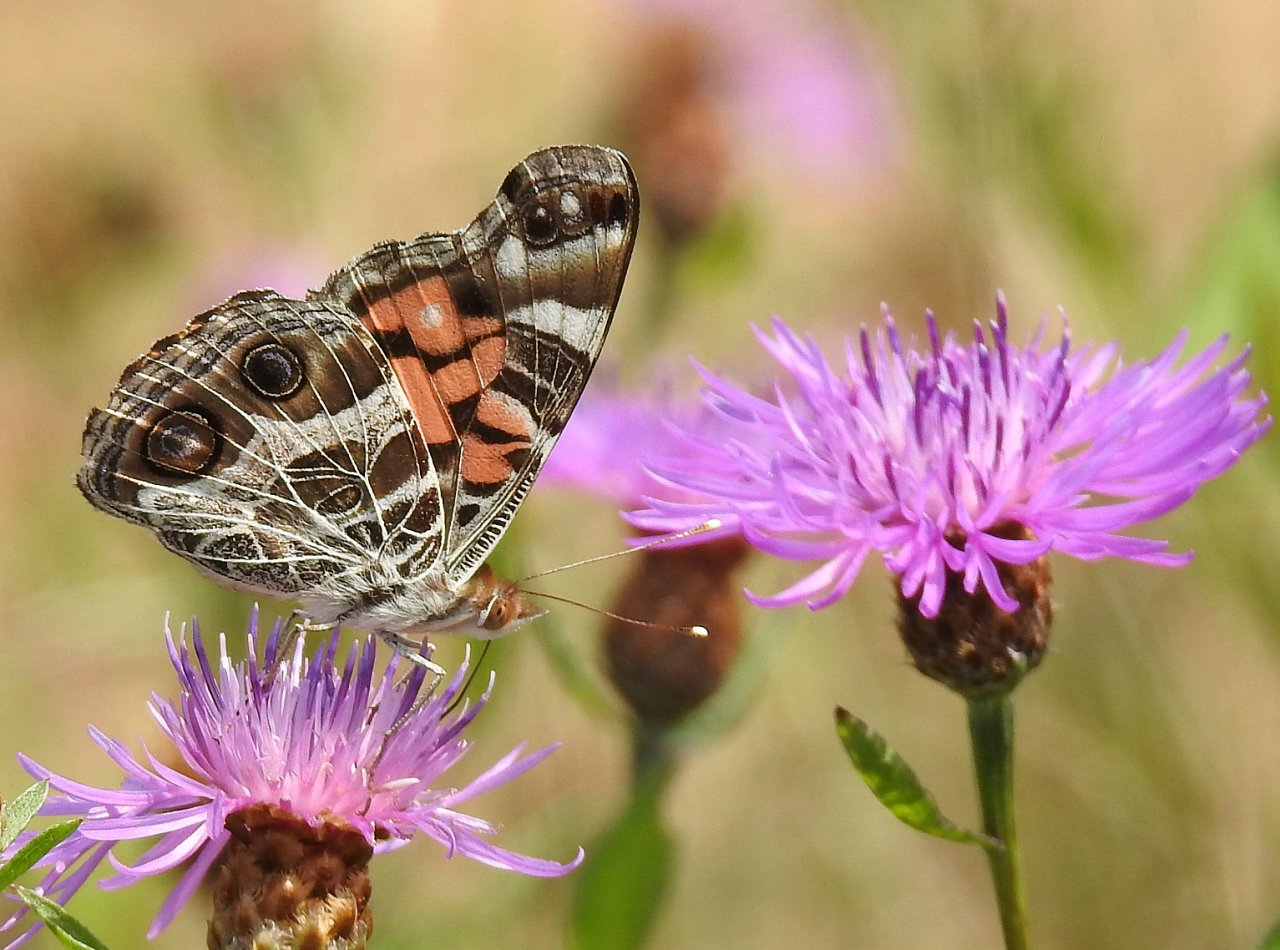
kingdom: Animalia
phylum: Arthropoda
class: Insecta
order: Lepidoptera
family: Nymphalidae
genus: Vanessa
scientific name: Vanessa virginiensis
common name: American Lady
